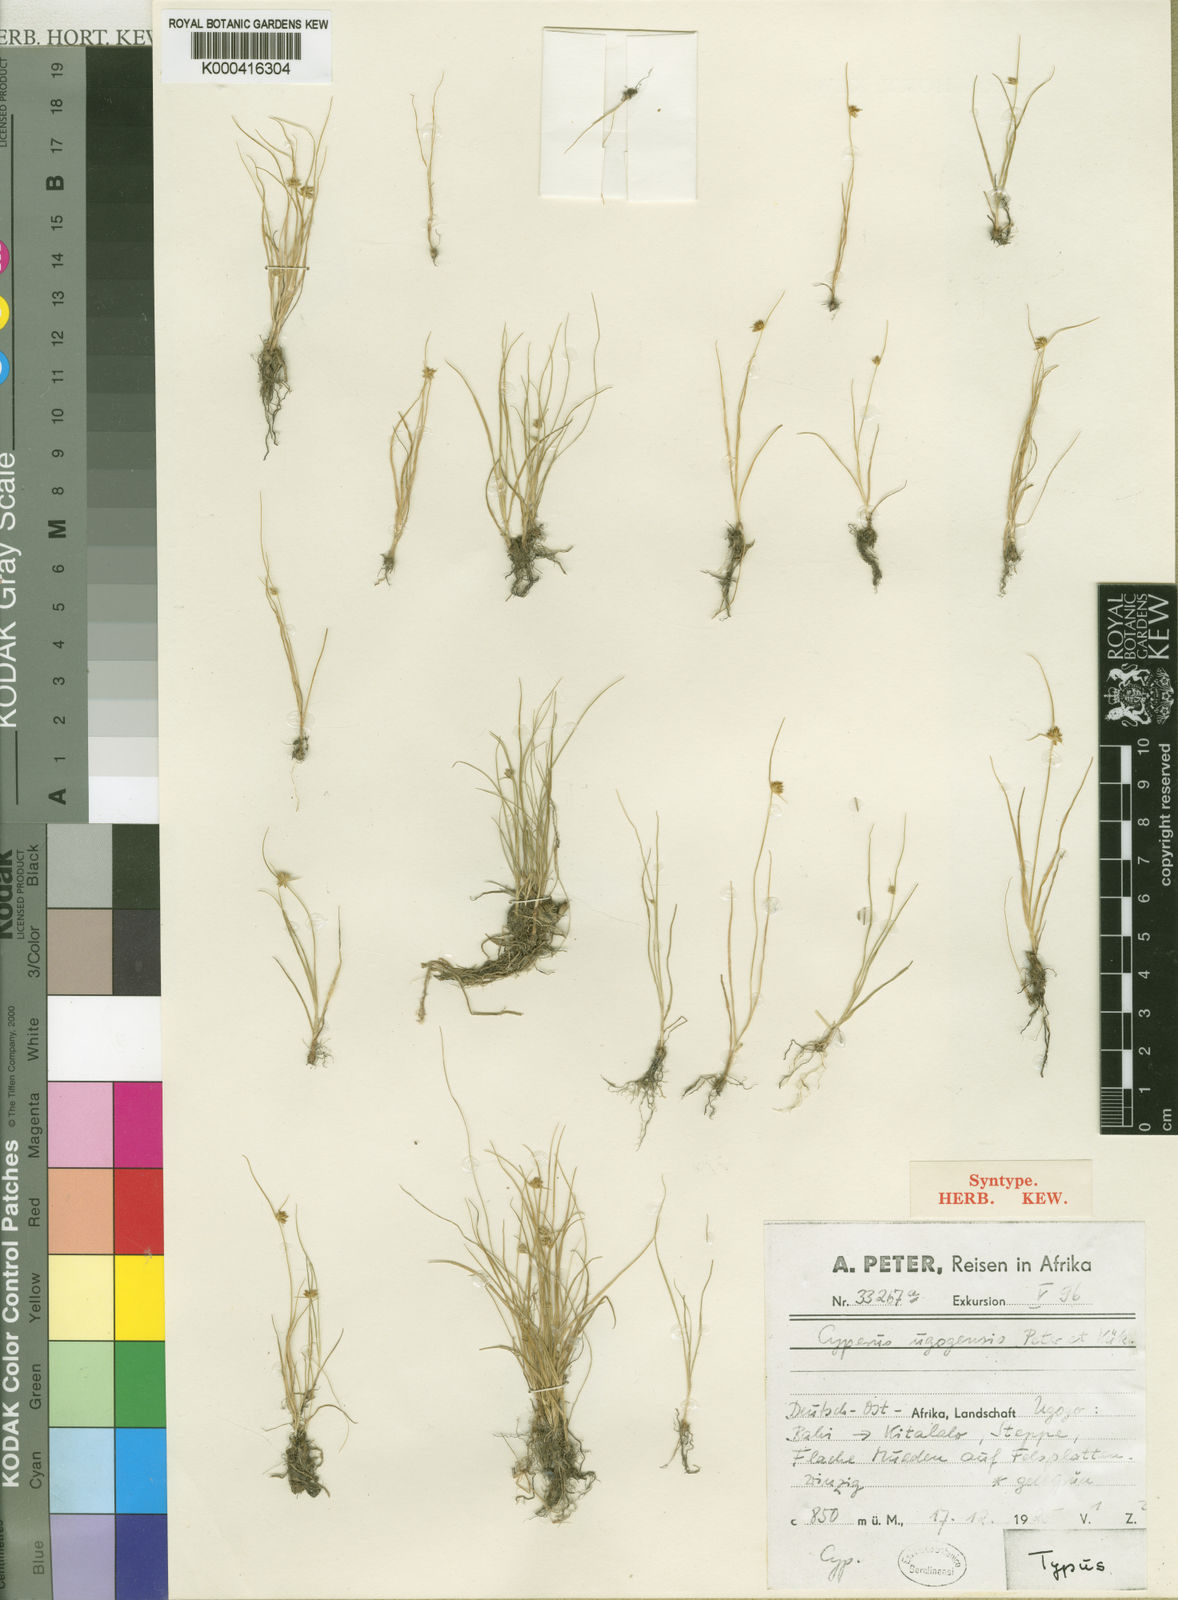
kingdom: Plantae
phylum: Tracheophyta
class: Liliopsida
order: Poales
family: Cyperaceae
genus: Cyperus
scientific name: Cyperus ugogensis
